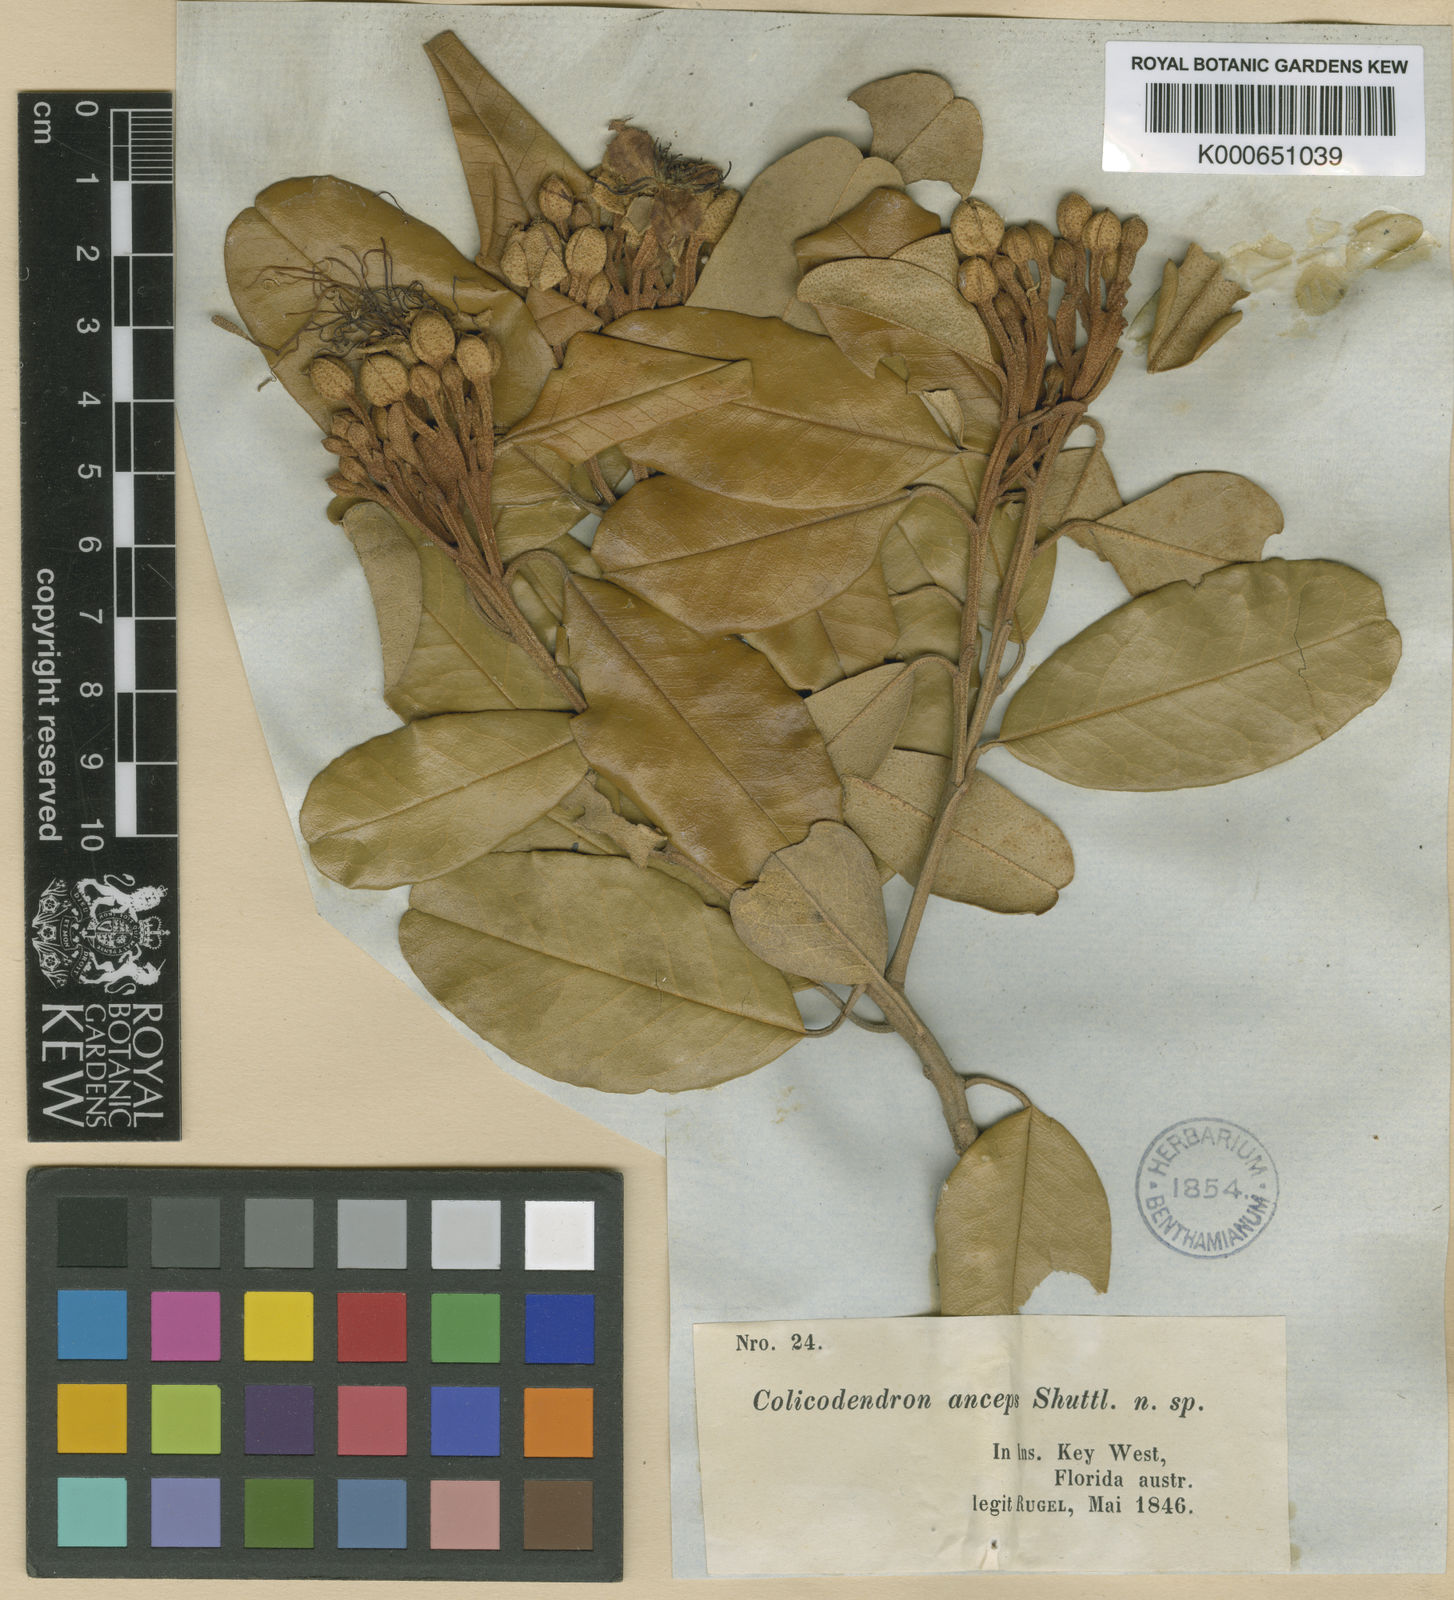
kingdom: Plantae
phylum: Tracheophyta
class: Magnoliopsida
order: Brassicales
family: Capparaceae
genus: Quadrella
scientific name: Quadrella cynophallophora
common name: Black willow
